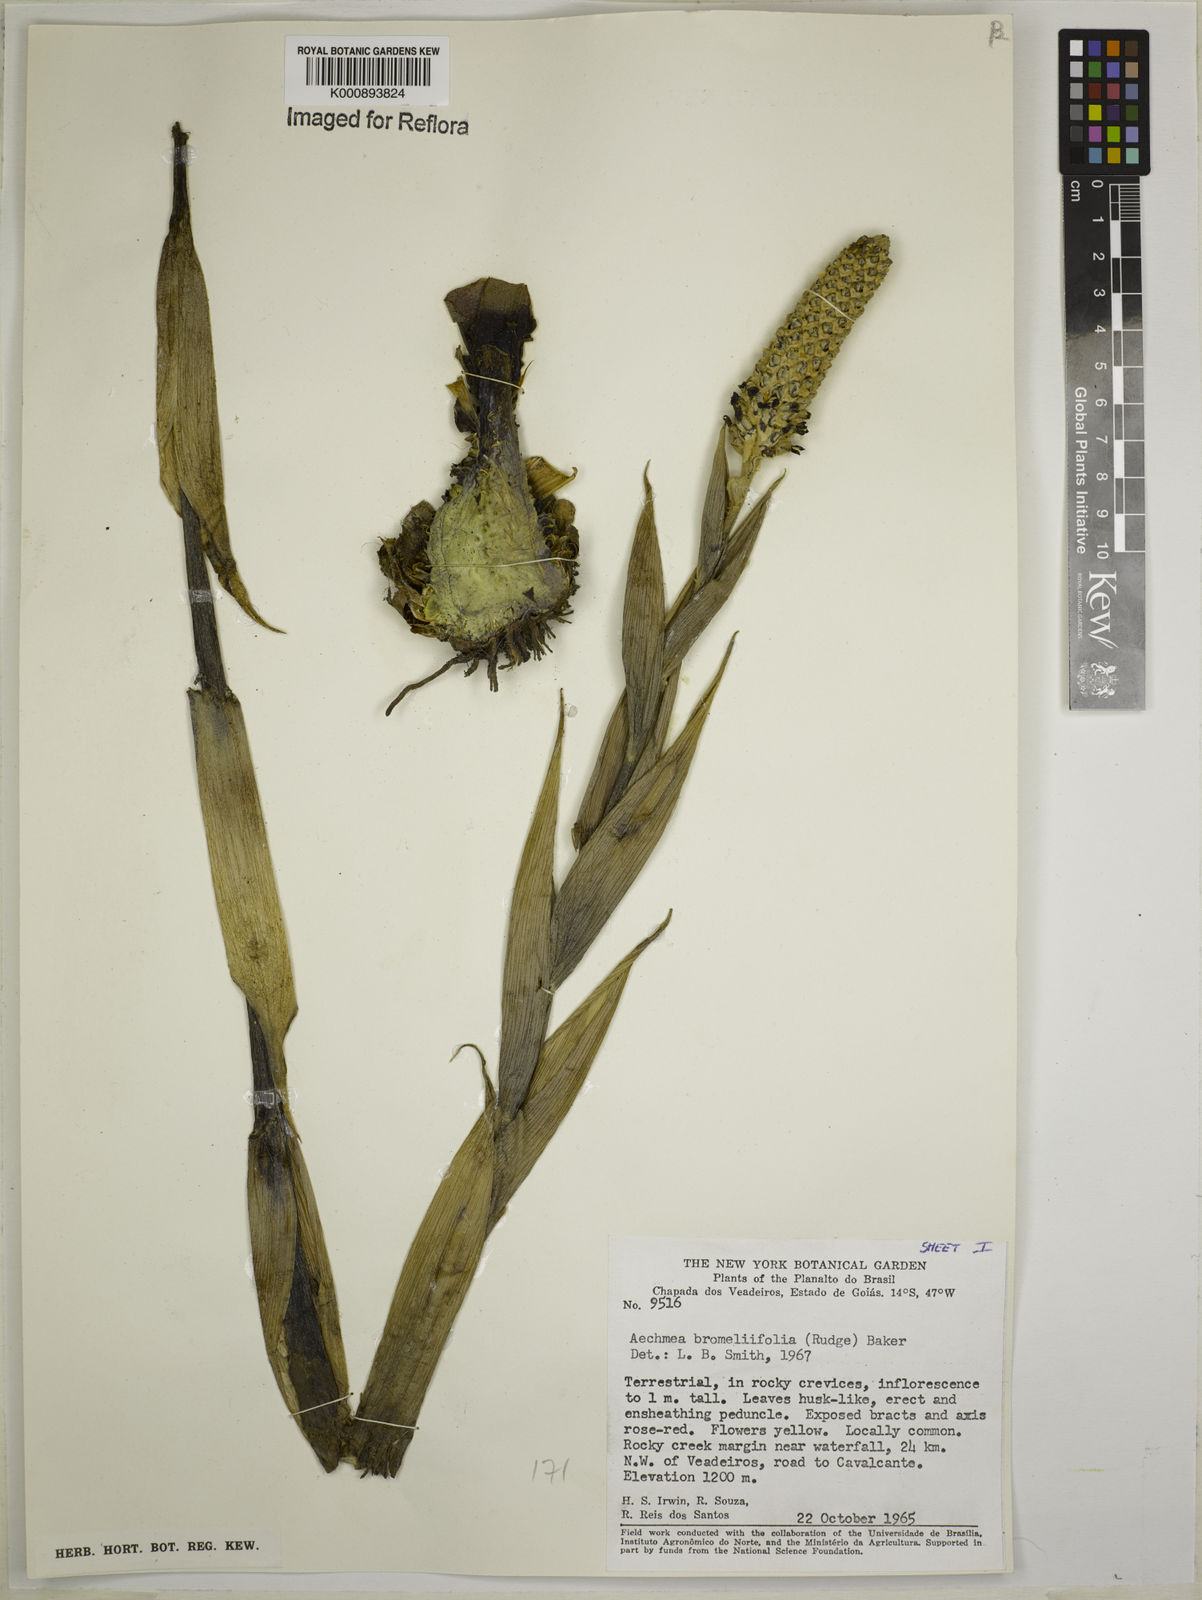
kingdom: Plantae
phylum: Tracheophyta
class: Liliopsida
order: Poales
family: Bromeliaceae
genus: Aechmea
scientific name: Aechmea
